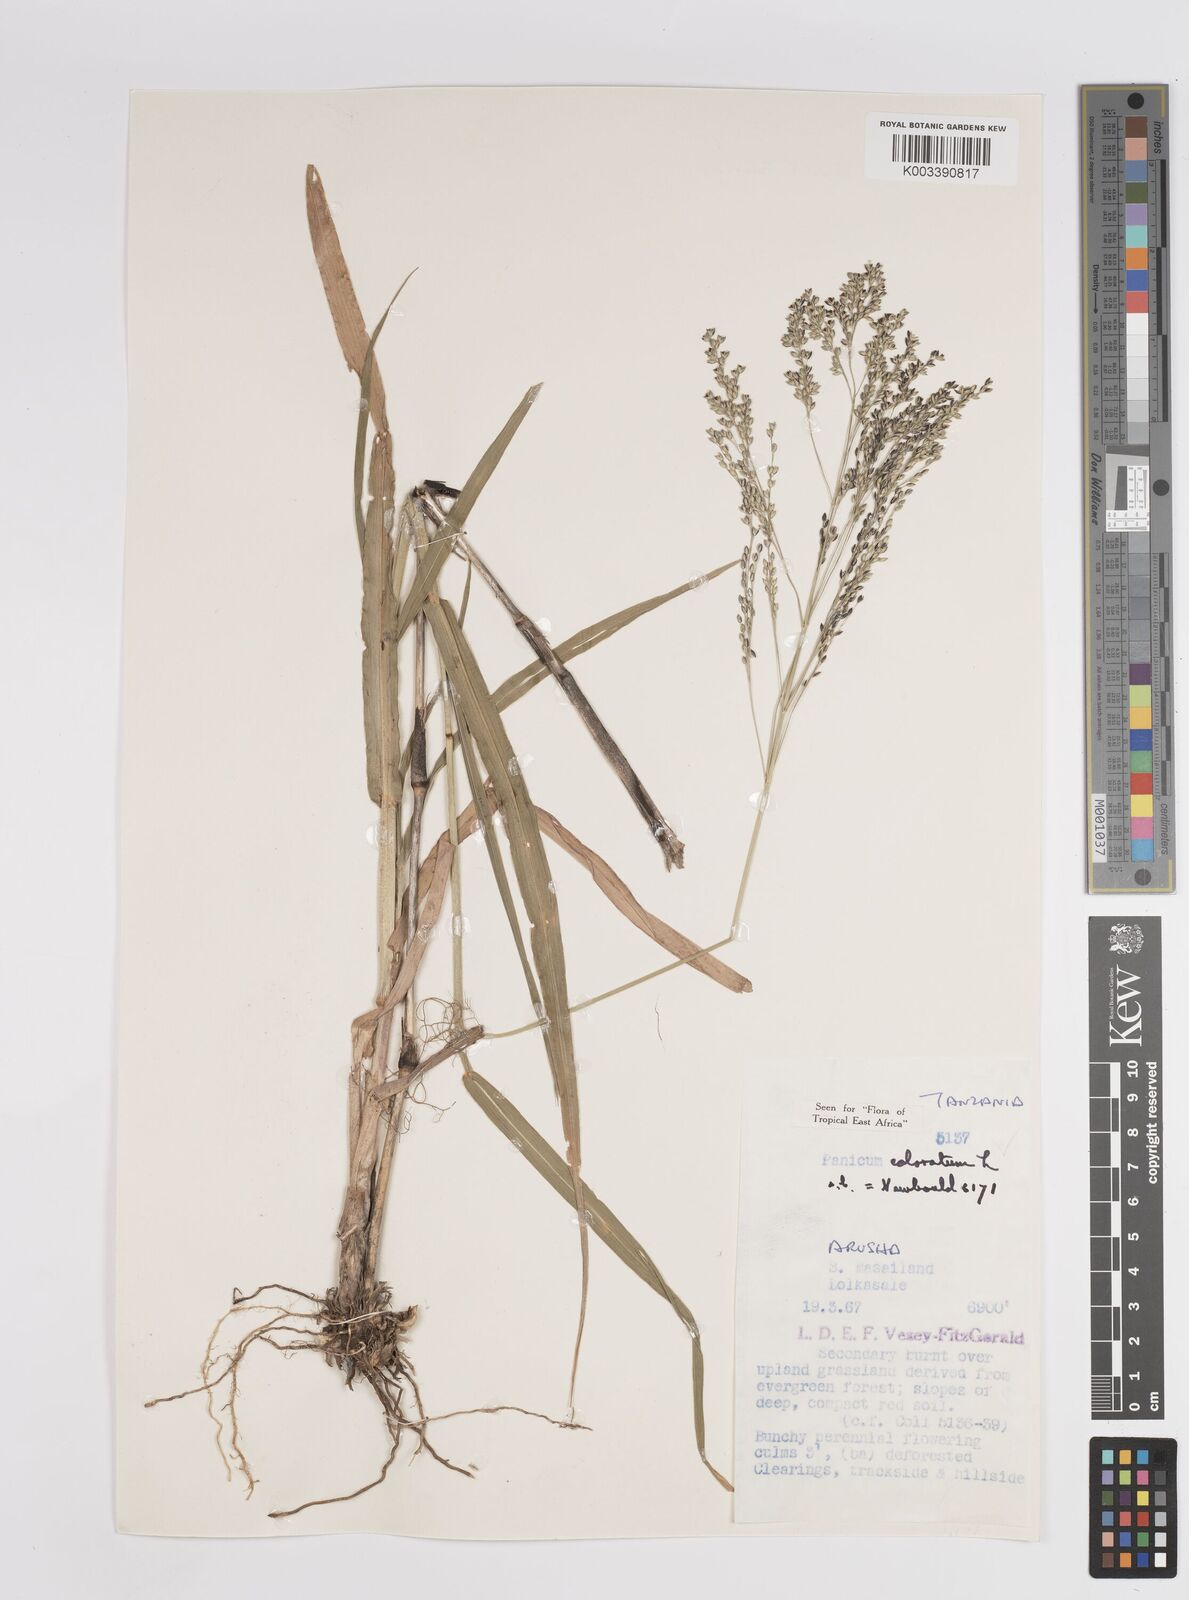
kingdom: Plantae
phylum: Tracheophyta
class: Liliopsida
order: Poales
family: Poaceae
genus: Panicum
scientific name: Panicum coloratum
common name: Kleingrass
